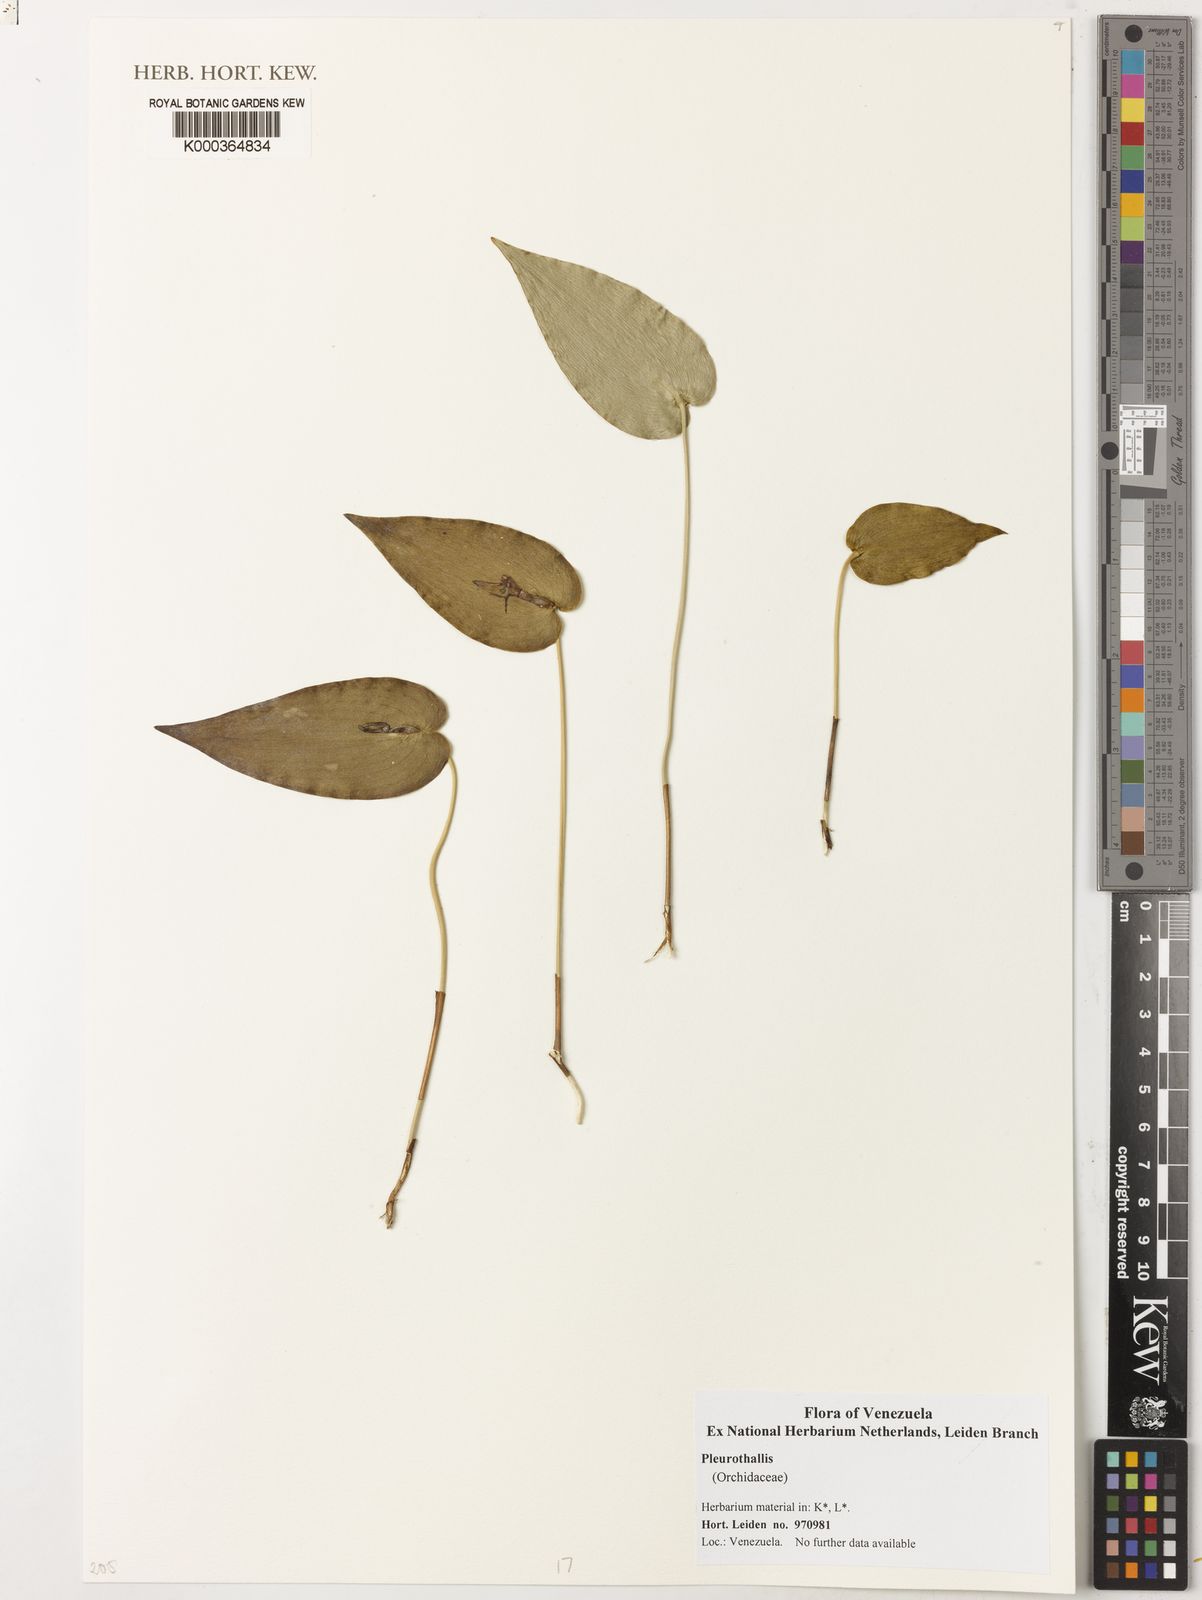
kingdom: Plantae
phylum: Tracheophyta
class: Liliopsida
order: Asparagales
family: Orchidaceae
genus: Pleurothallis
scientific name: Pleurothallis
